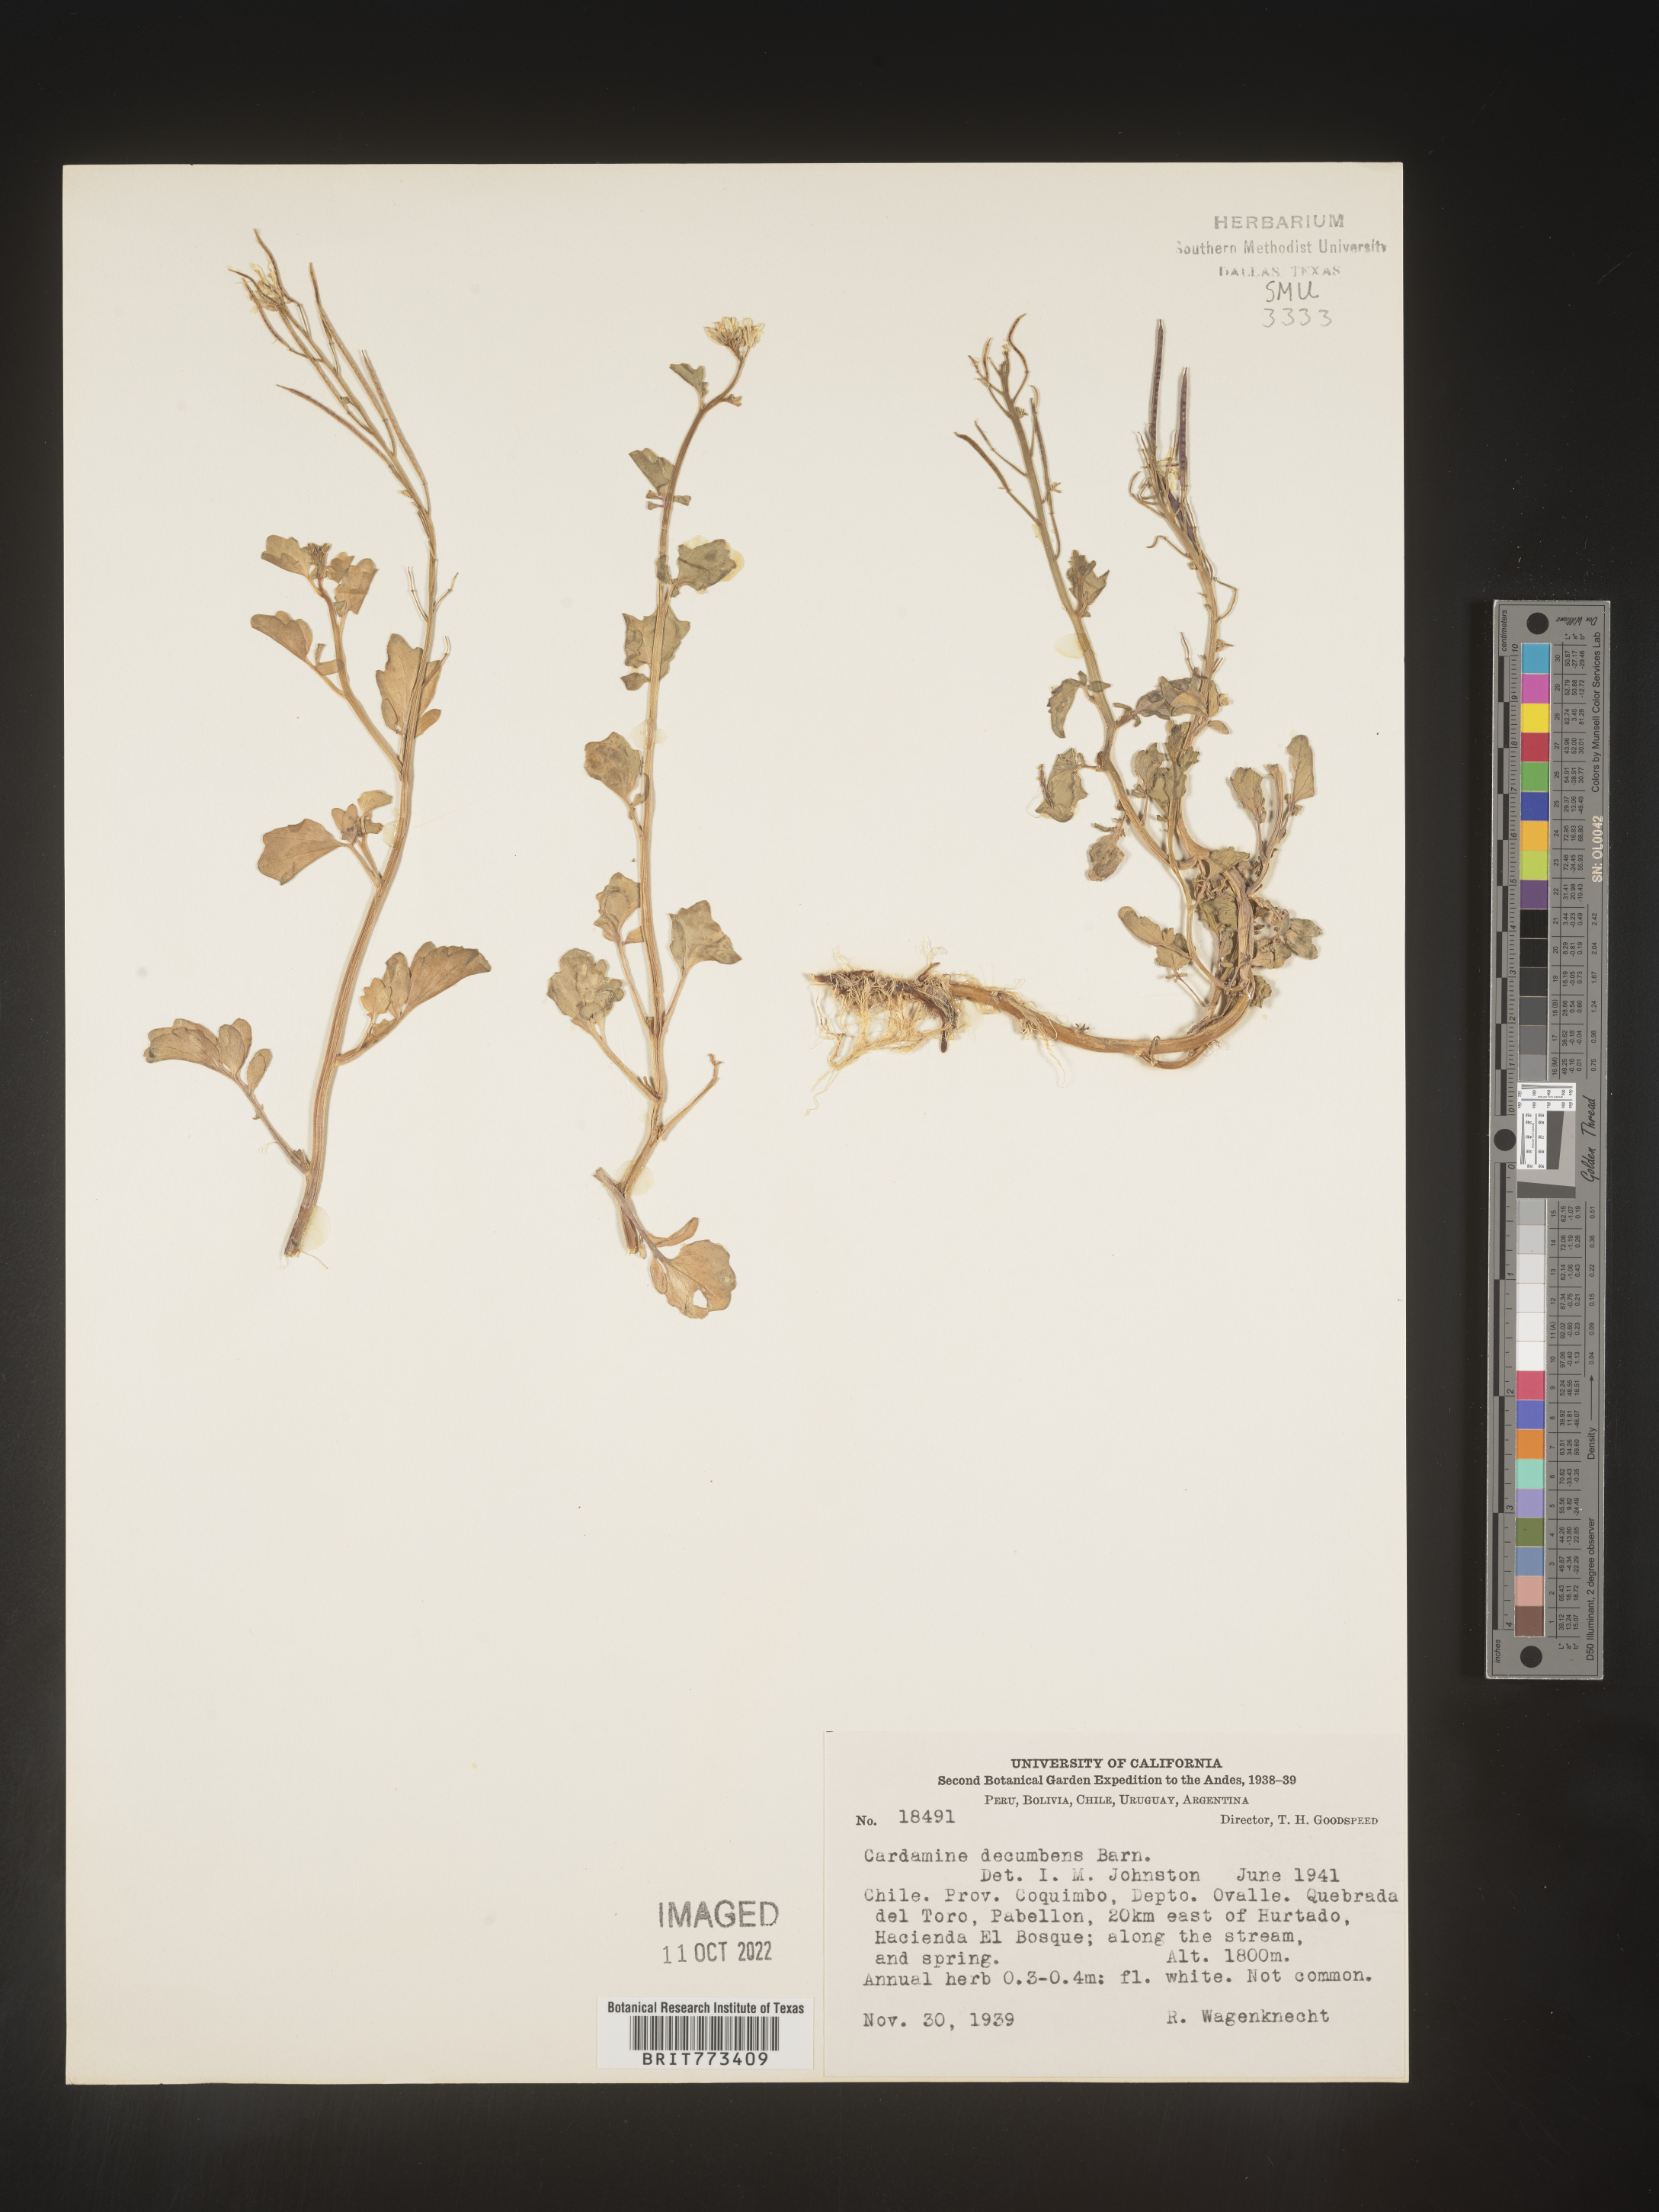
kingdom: Plantae
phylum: Tracheophyta
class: Magnoliopsida
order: Brassicales
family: Brassicaceae
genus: Cardamine
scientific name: Cardamine
